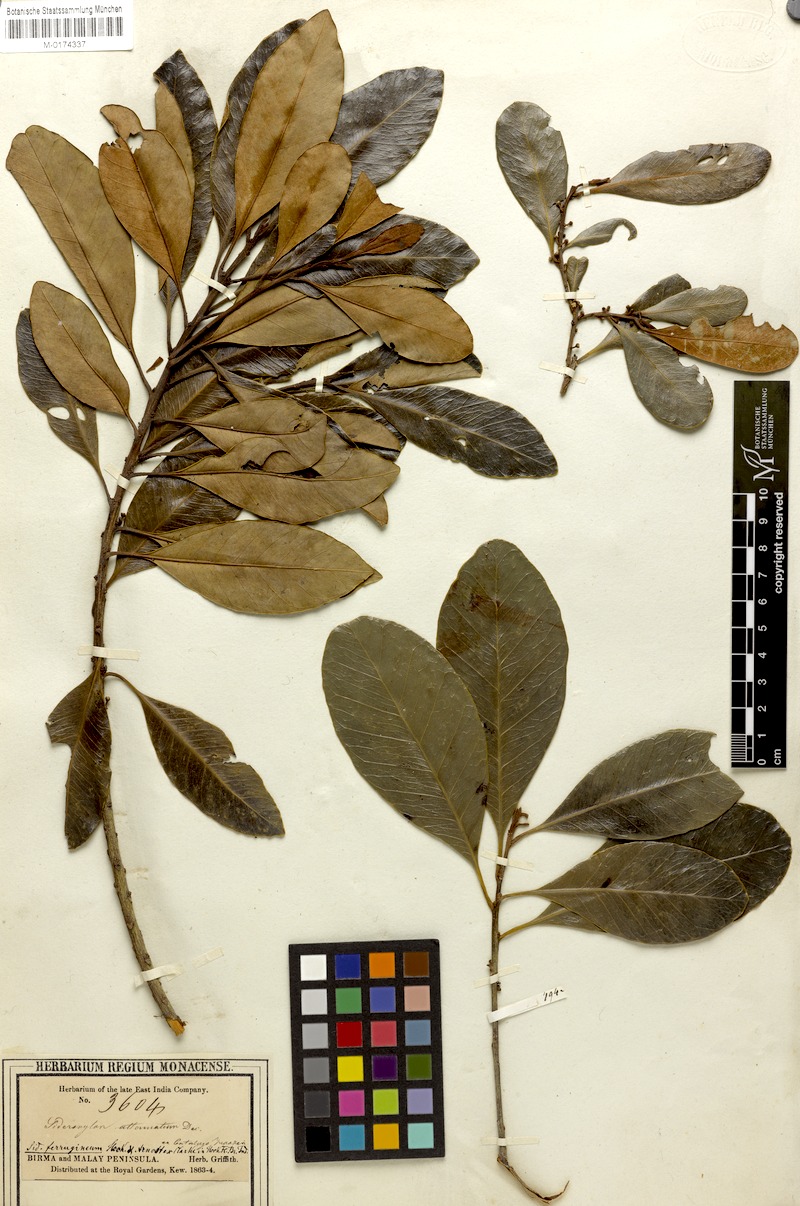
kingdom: Plantae
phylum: Tracheophyta
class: Magnoliopsida
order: Ericales
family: Sapotaceae
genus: Planchonella
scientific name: Planchonella obovata
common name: Black-ash
